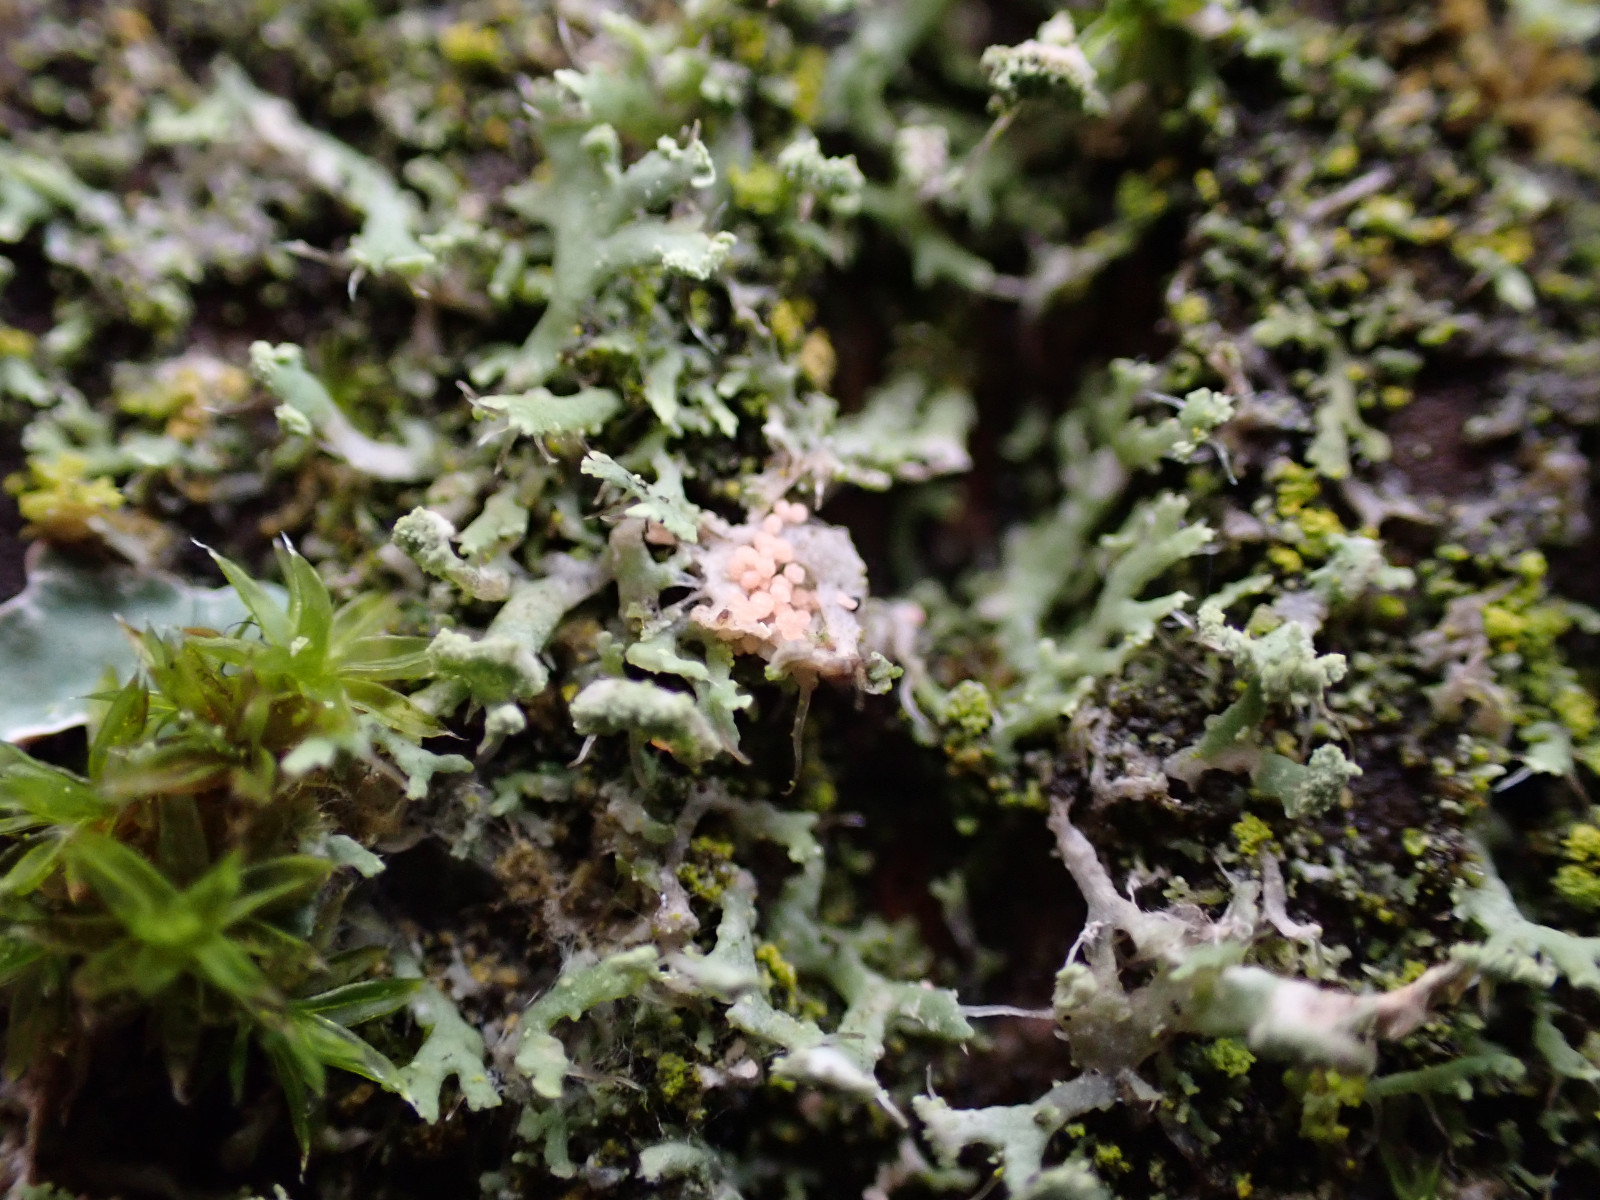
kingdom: Fungi
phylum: Basidiomycota
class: Agaricomycetes
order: Corticiales
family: Corticiaceae
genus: Erythricium
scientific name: Erythricium aurantiacum
